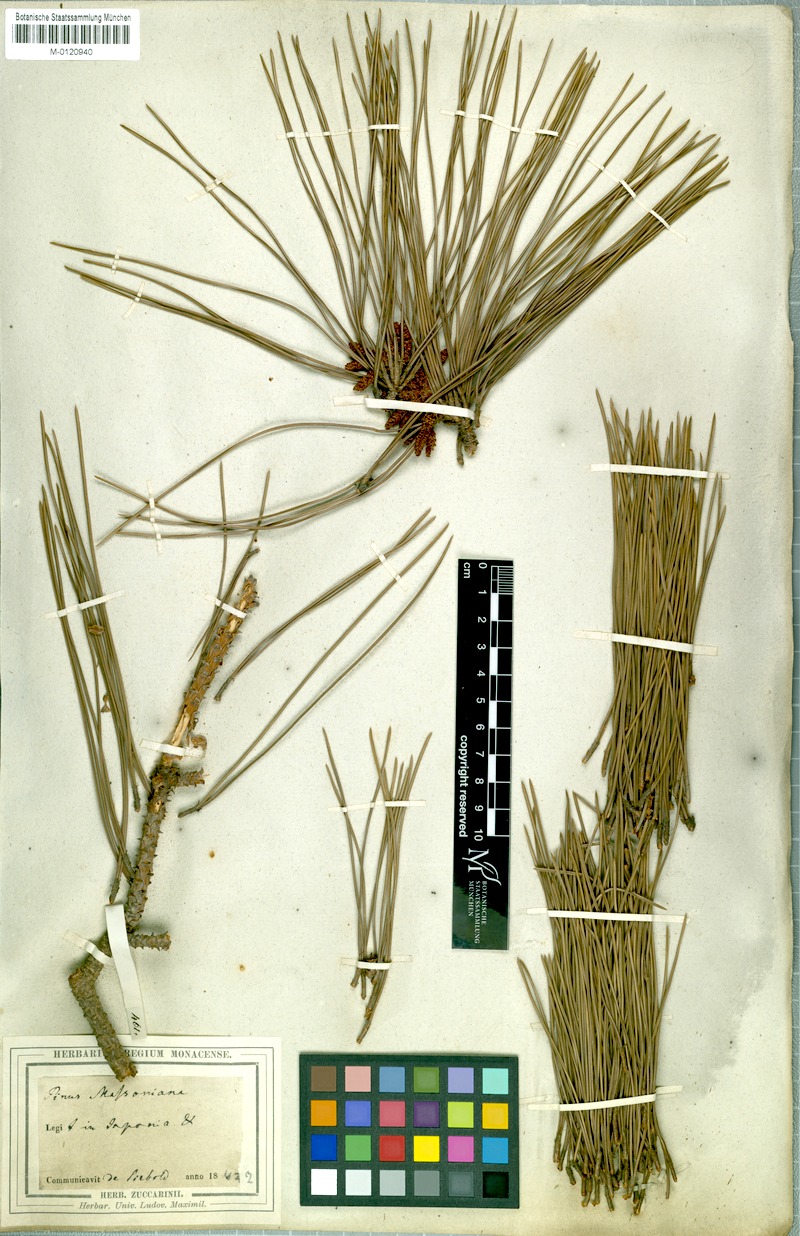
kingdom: Plantae
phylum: Tracheophyta
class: Pinopsida
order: Pinales
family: Pinaceae
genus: Pinus
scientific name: Pinus massoniana
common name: Chinese red pine
